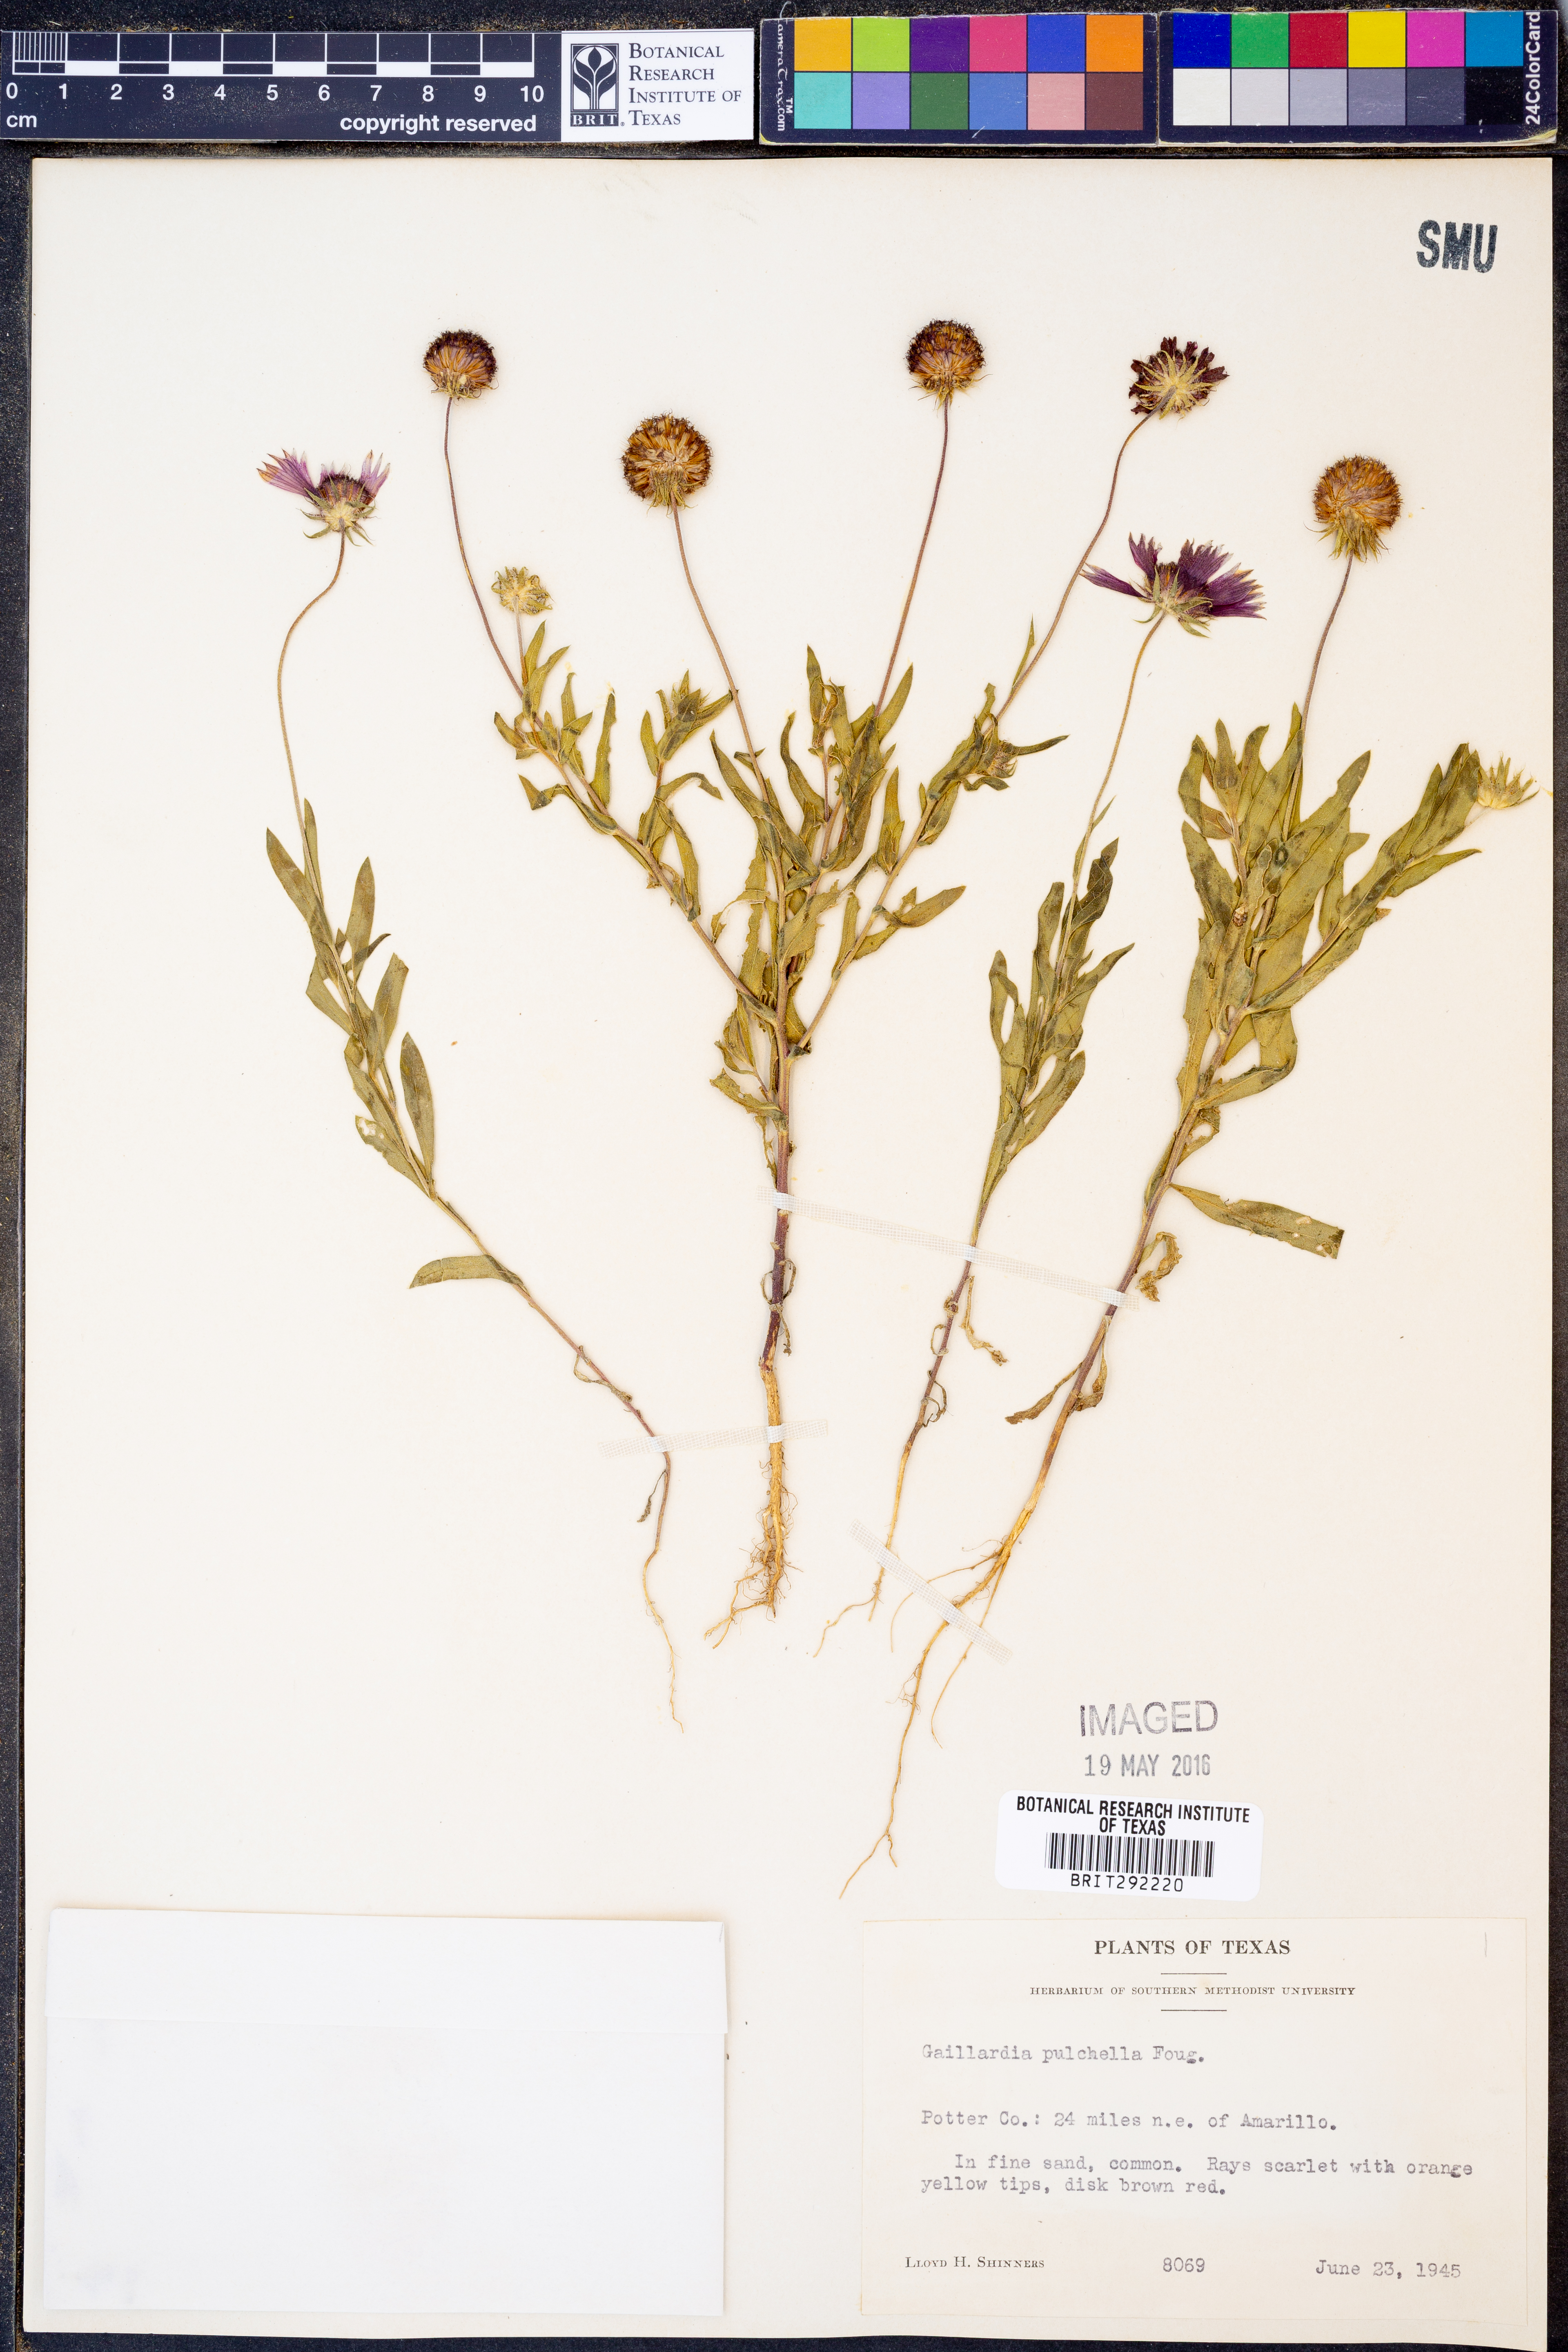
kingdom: Plantae
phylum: Tracheophyta
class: Magnoliopsida
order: Asterales
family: Asteraceae
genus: Gaillardia
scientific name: Gaillardia pulchella
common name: Firewheel
